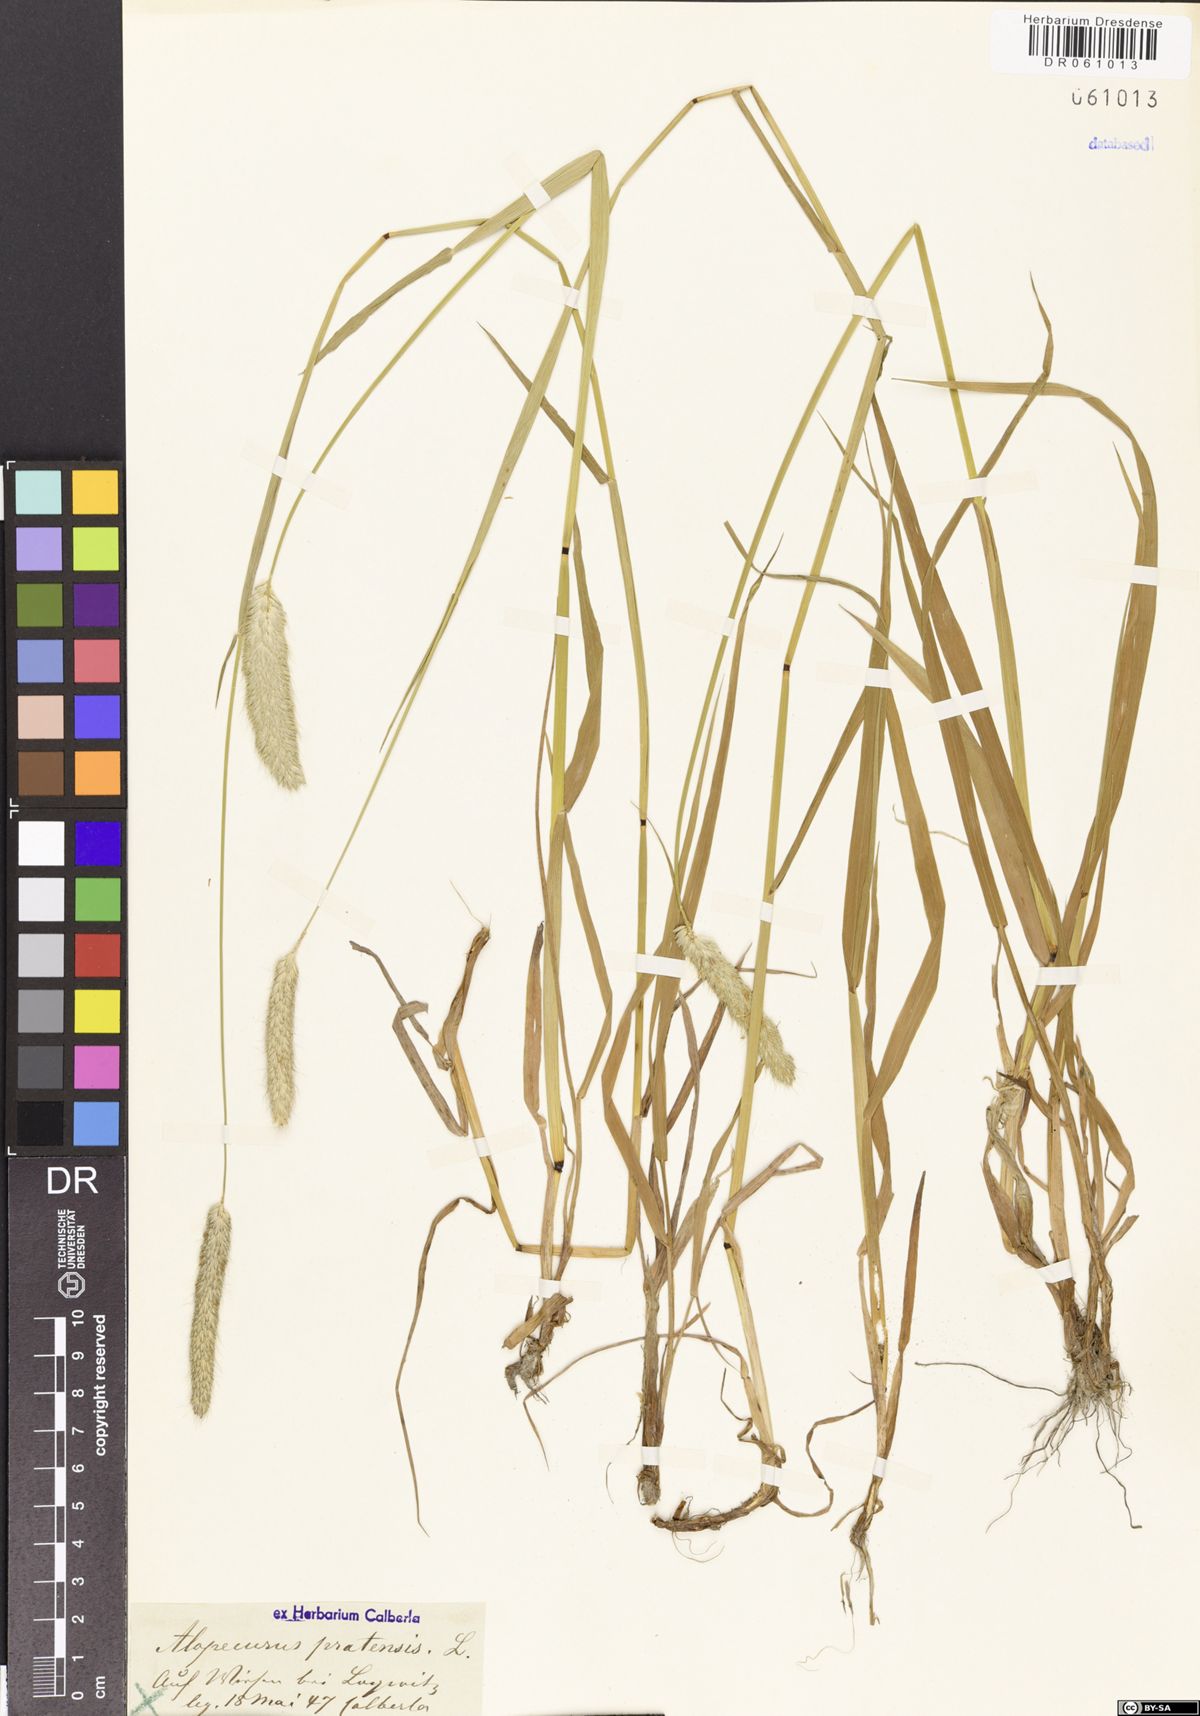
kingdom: Plantae
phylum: Tracheophyta
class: Liliopsida
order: Poales
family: Poaceae
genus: Alopecurus
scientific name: Alopecurus pratensis
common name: Meadow foxtail
